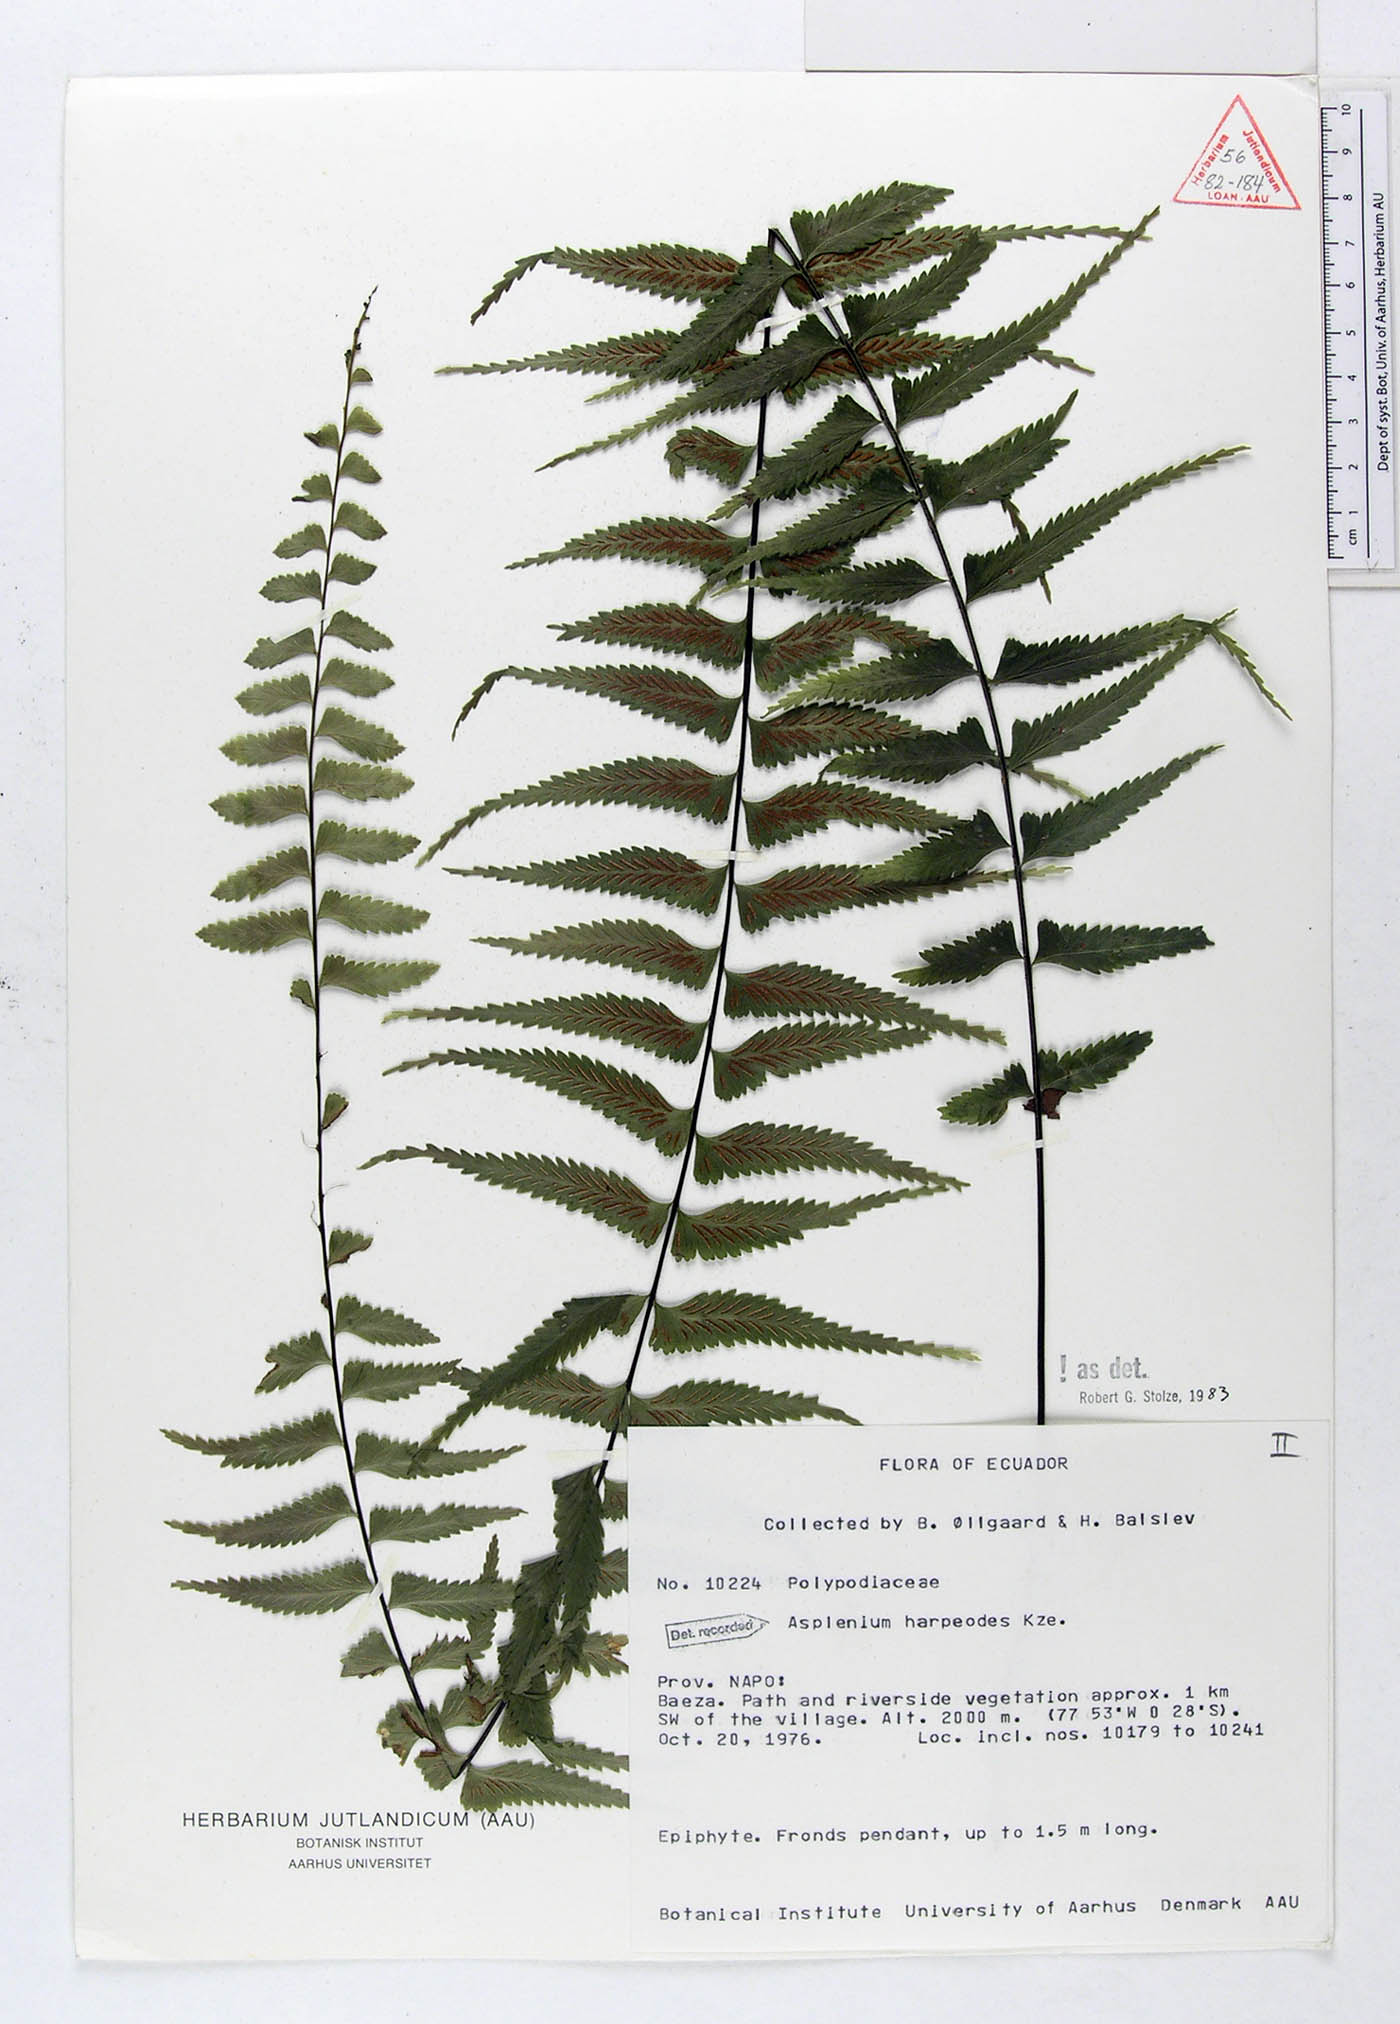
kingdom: Plantae
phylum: Tracheophyta
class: Polypodiopsida
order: Polypodiales
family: Aspleniaceae
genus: Asplenium
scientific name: Asplenium harpeodes
